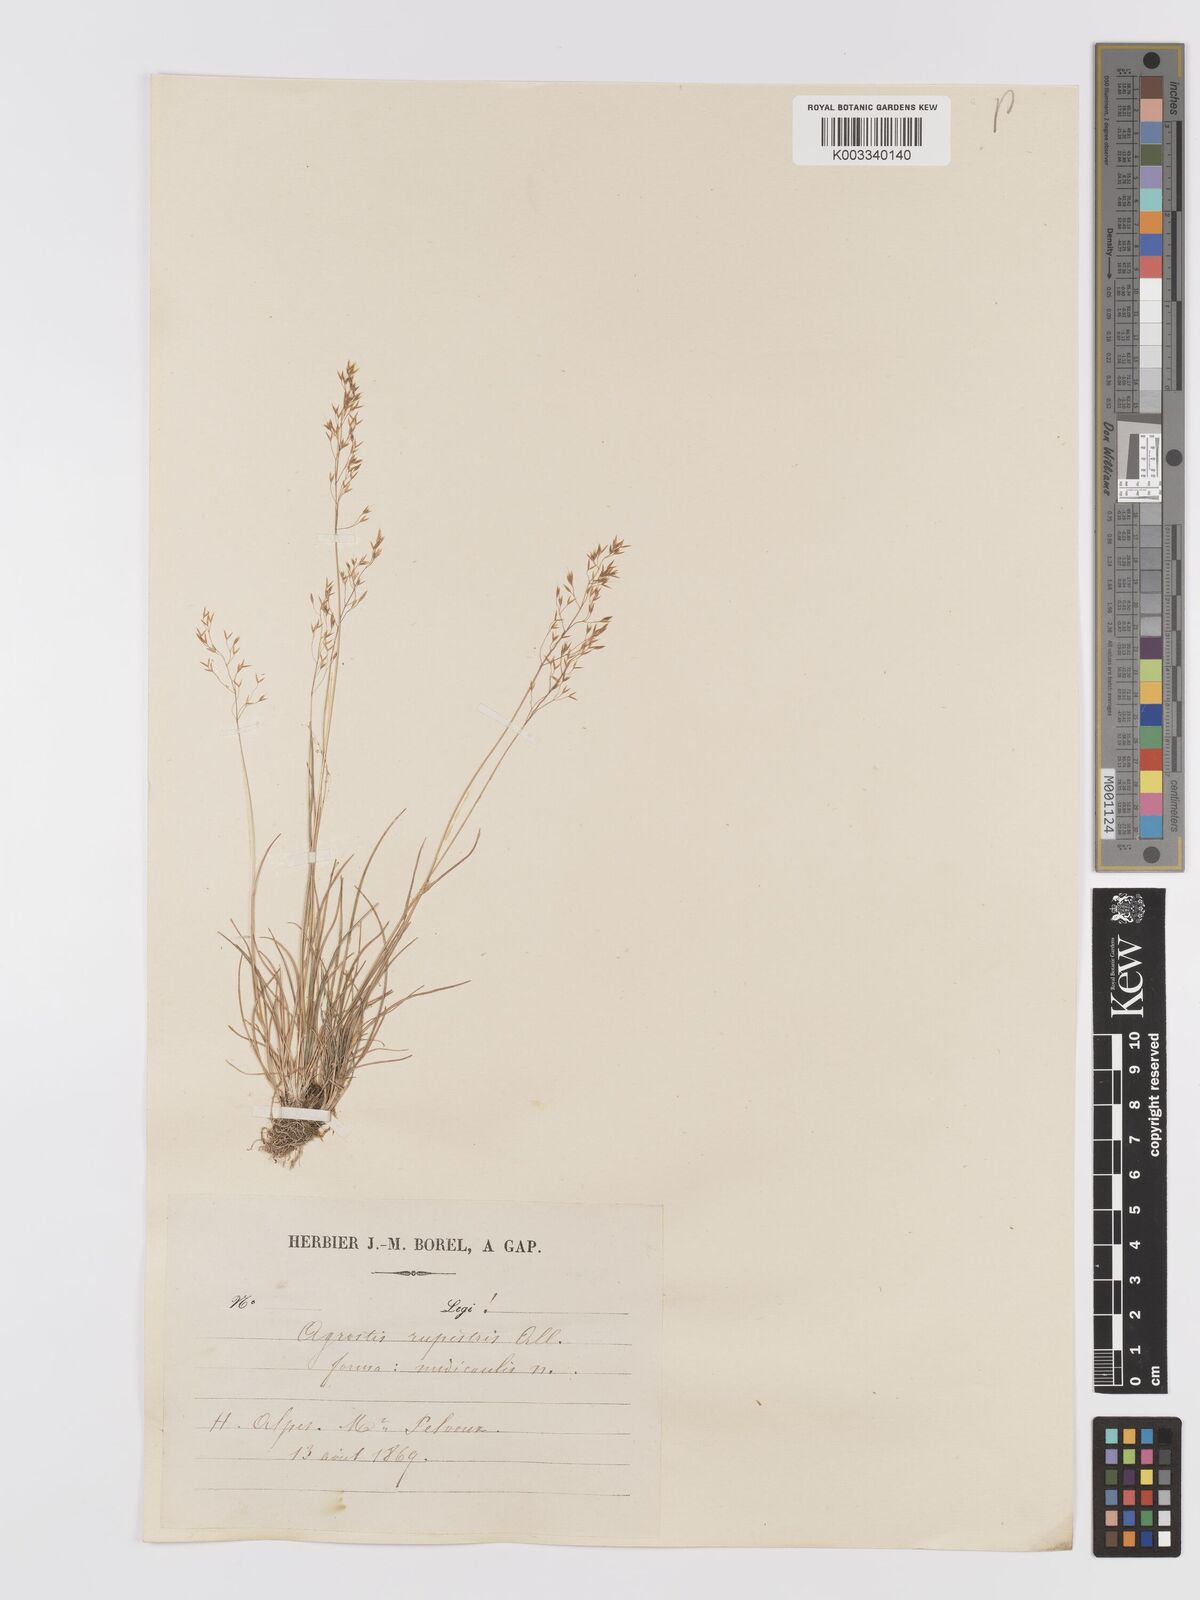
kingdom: Plantae
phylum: Tracheophyta
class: Liliopsida
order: Poales
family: Poaceae
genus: Agrostis
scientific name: Agrostis rupestris
